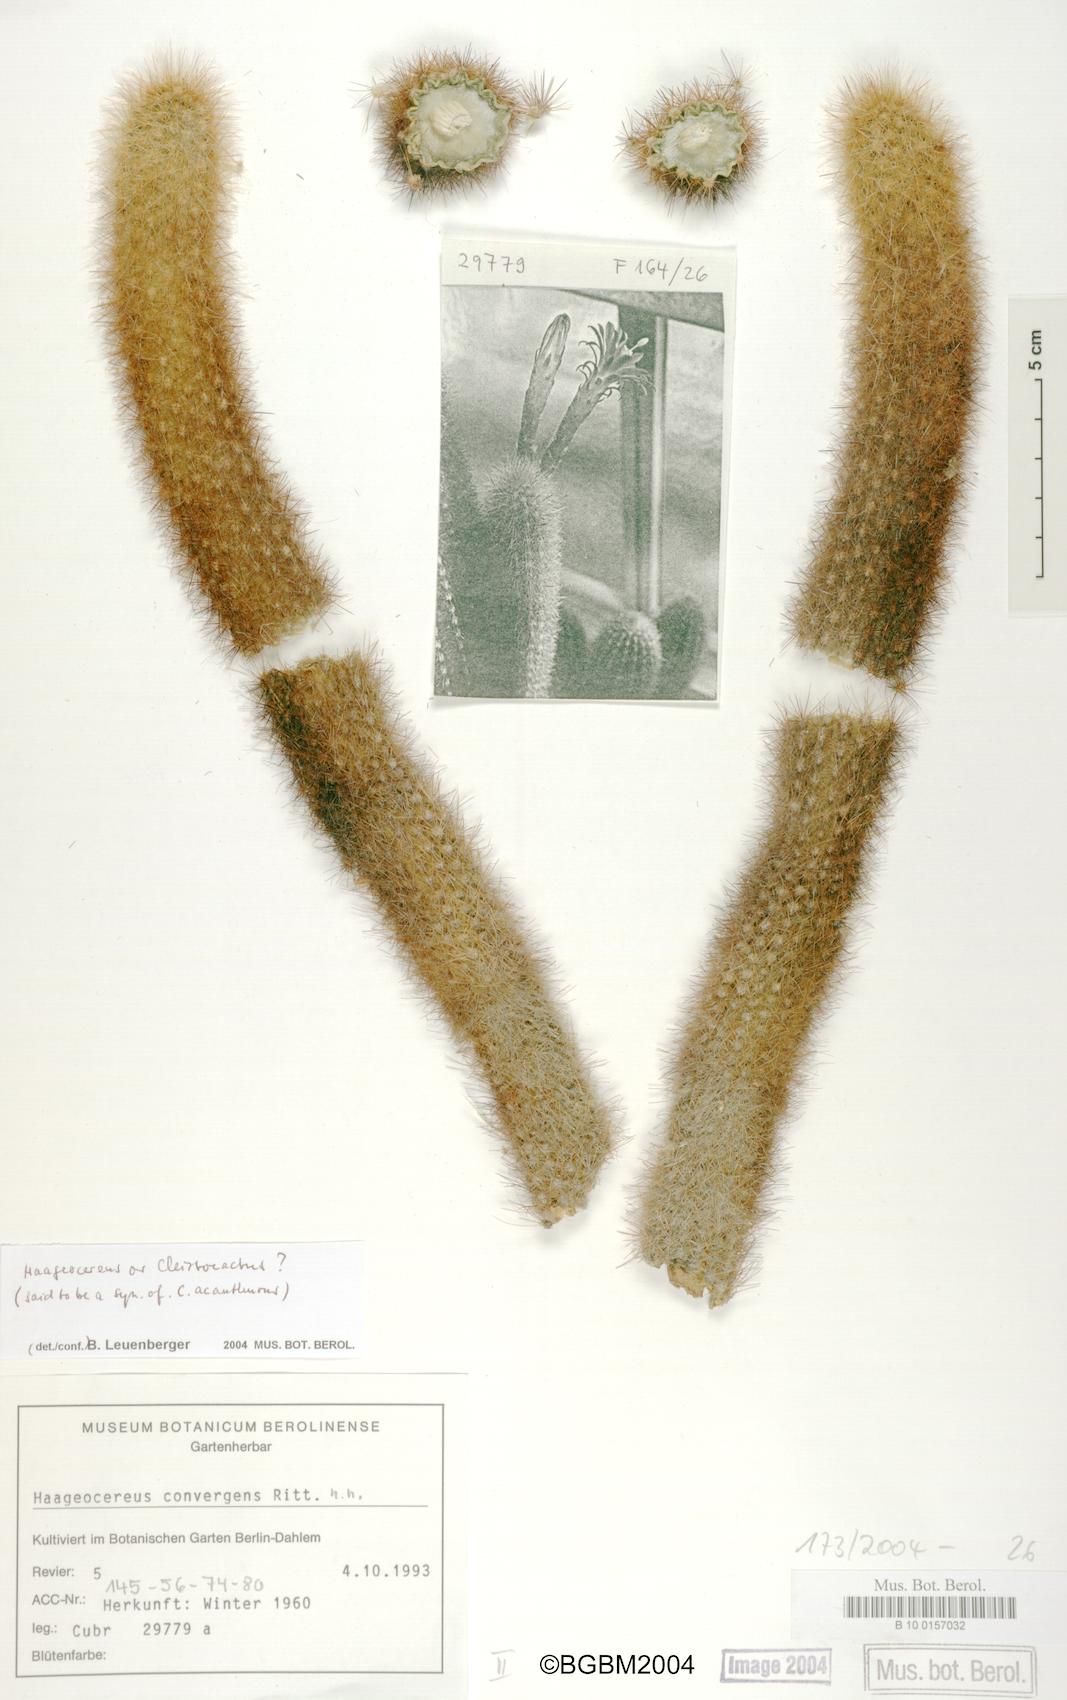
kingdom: Plantae
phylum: Tracheophyta
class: Magnoliopsida
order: Caryophyllales
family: Cactaceae
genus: Borzicactus
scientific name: Borzicactus acanthurus
